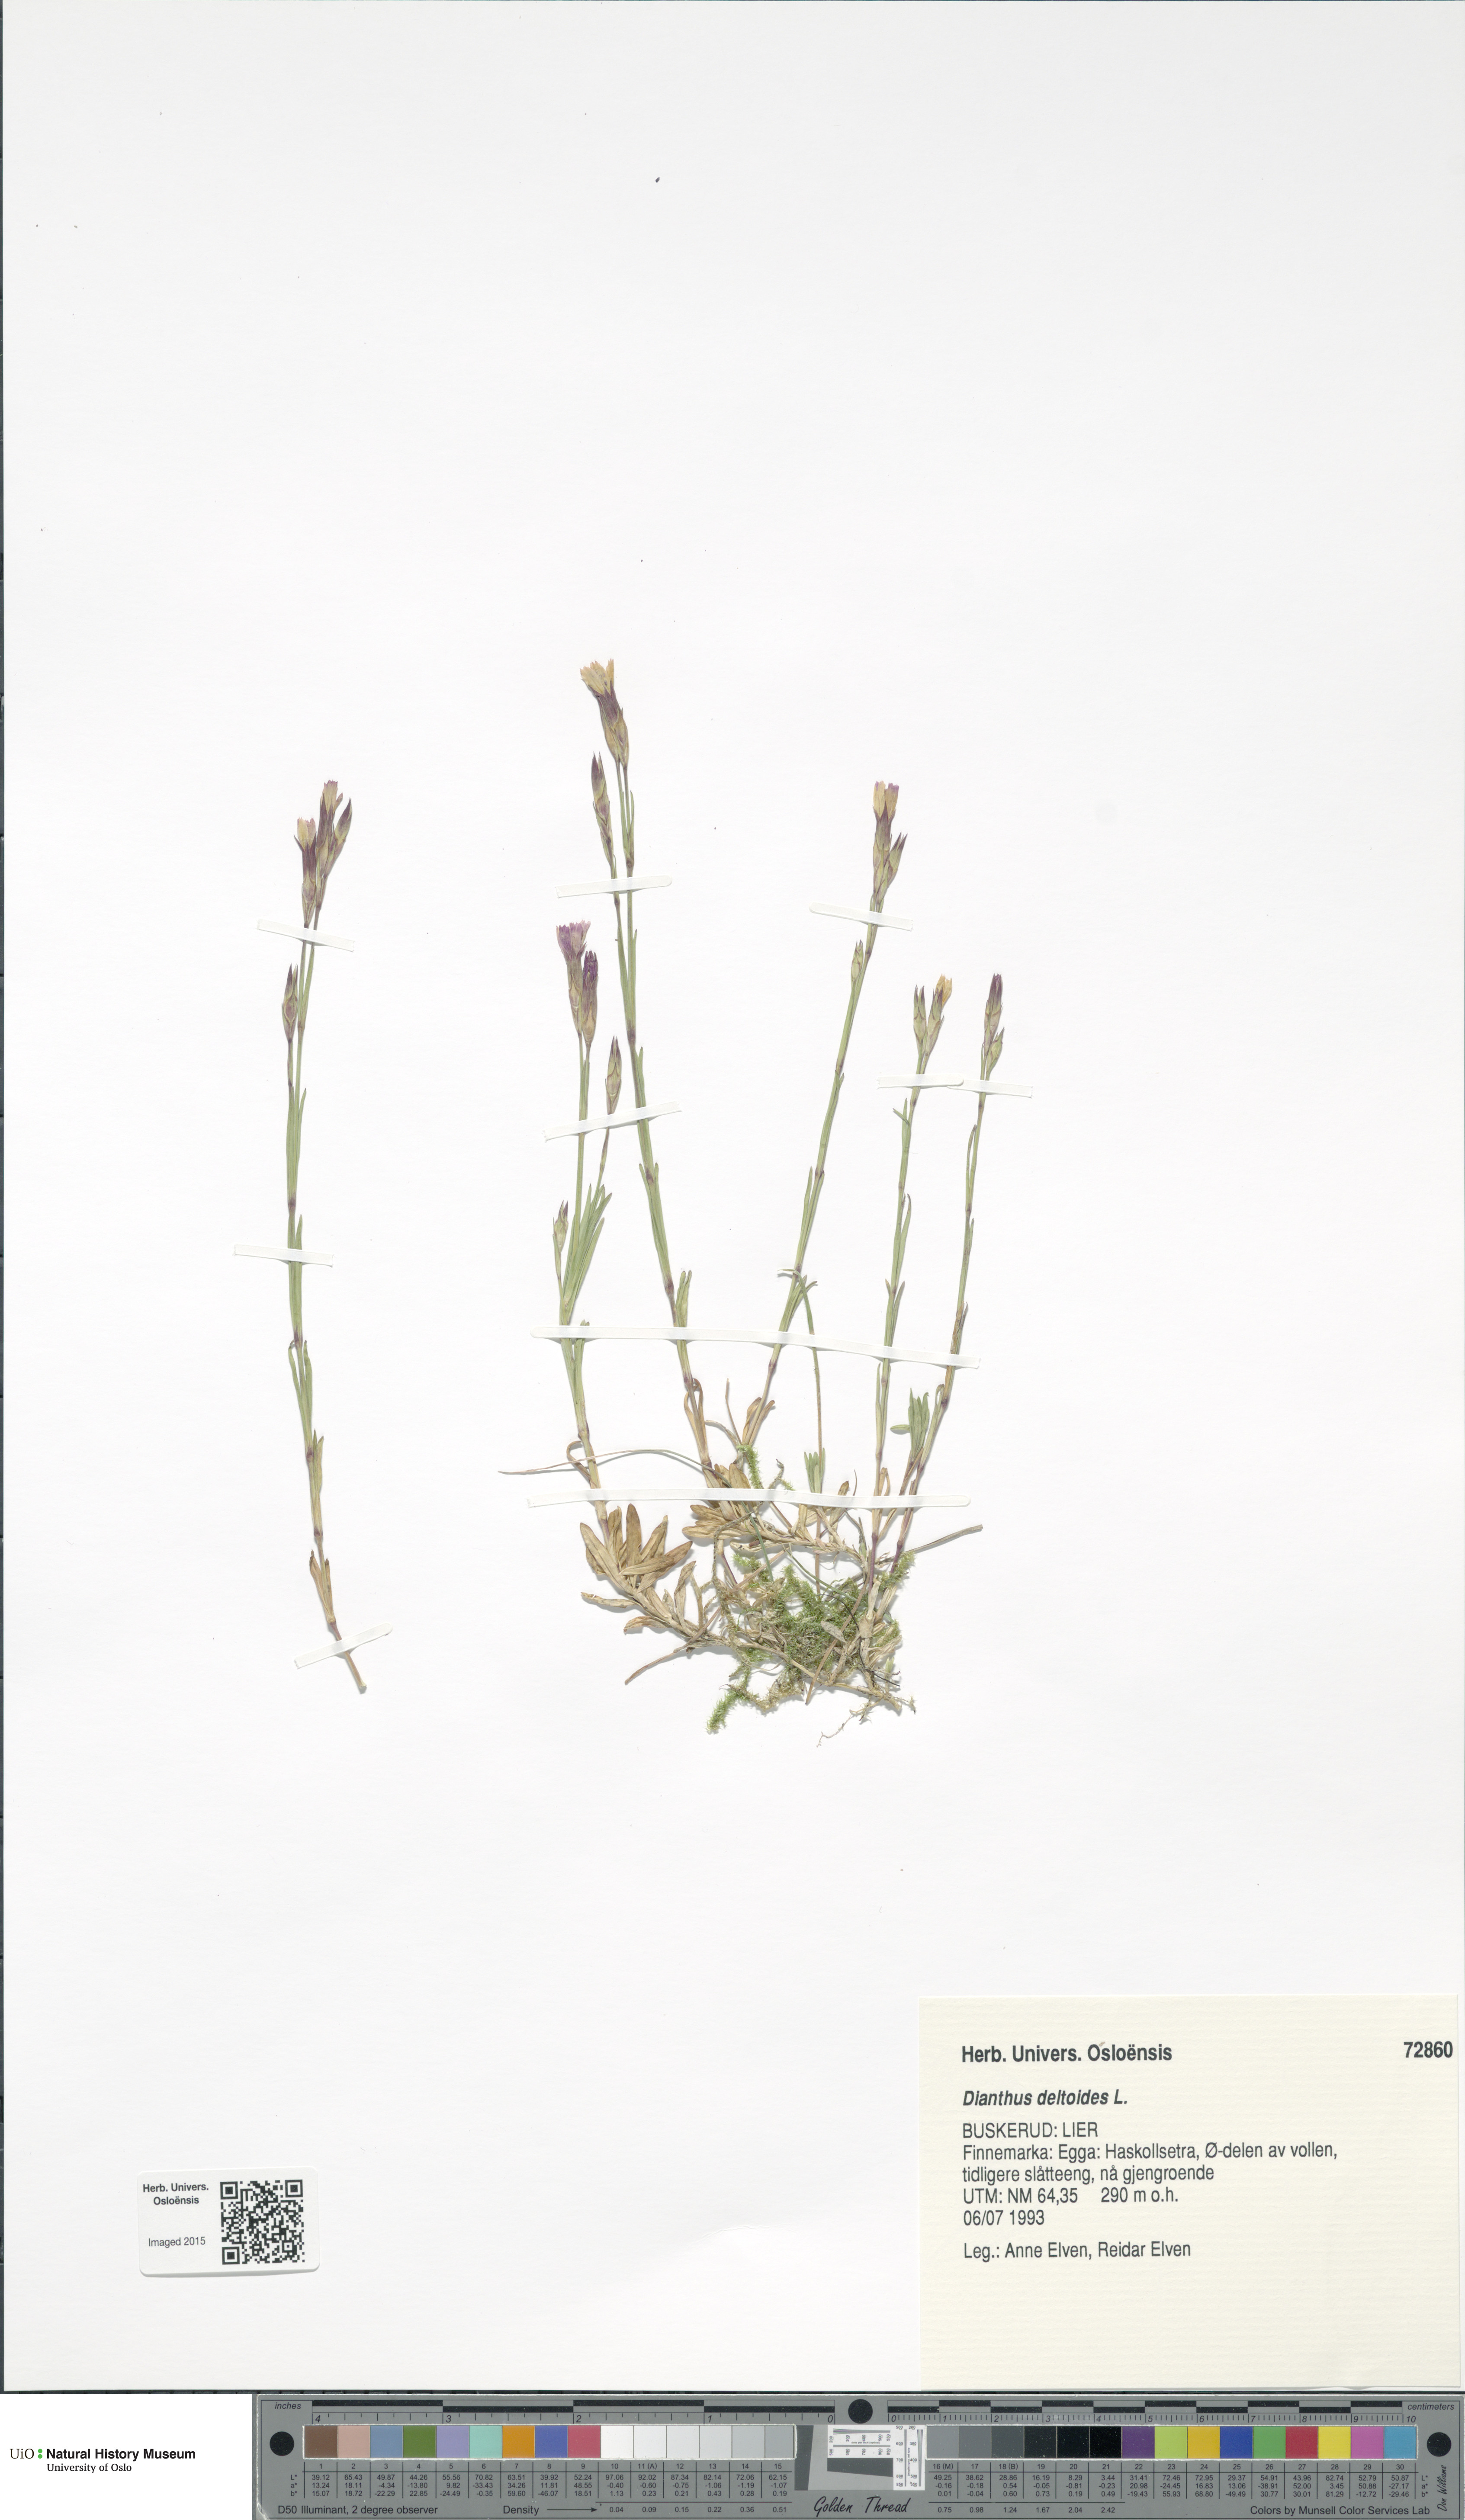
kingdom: Plantae
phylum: Tracheophyta
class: Magnoliopsida
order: Caryophyllales
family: Caryophyllaceae
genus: Dianthus
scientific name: Dianthus deltoides
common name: Maiden pink
